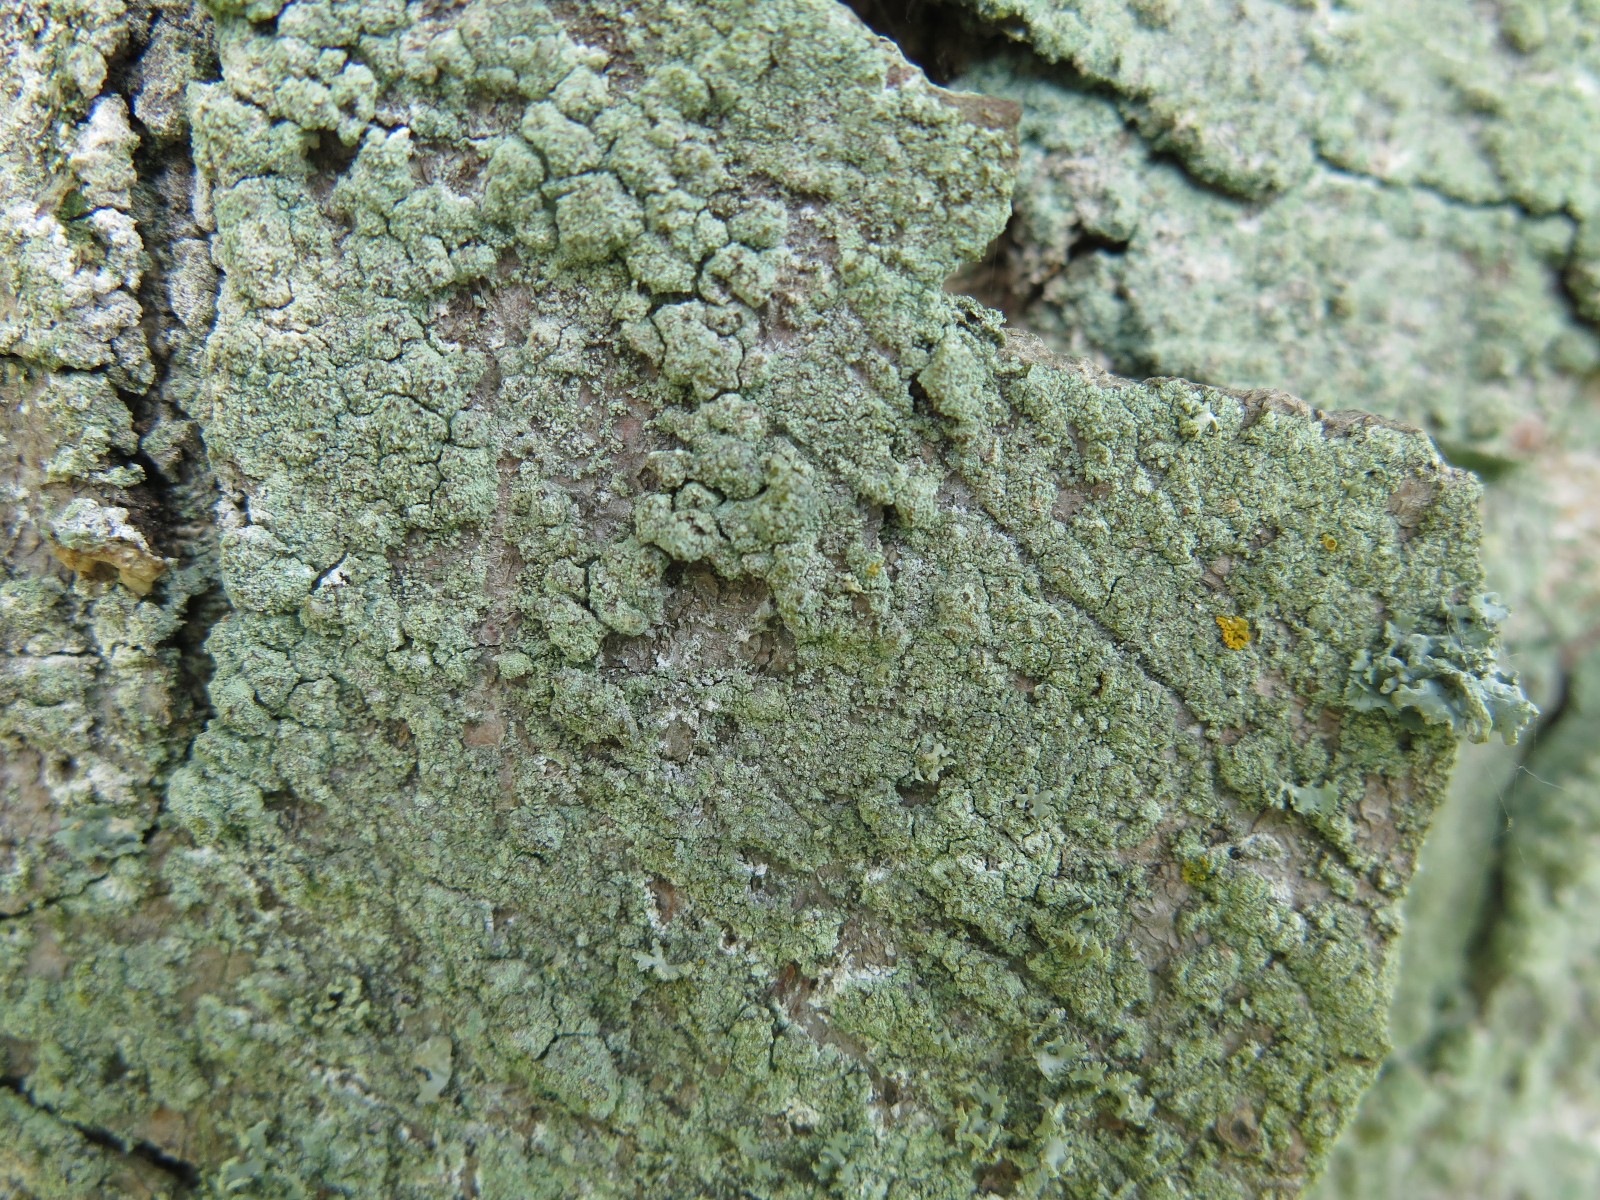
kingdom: Fungi
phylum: Ascomycota
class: Lecanoromycetes
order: Lecanorales
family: Lecanoraceae
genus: Lecanora
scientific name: Lecanora expallens
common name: bleggul kantskivelav
